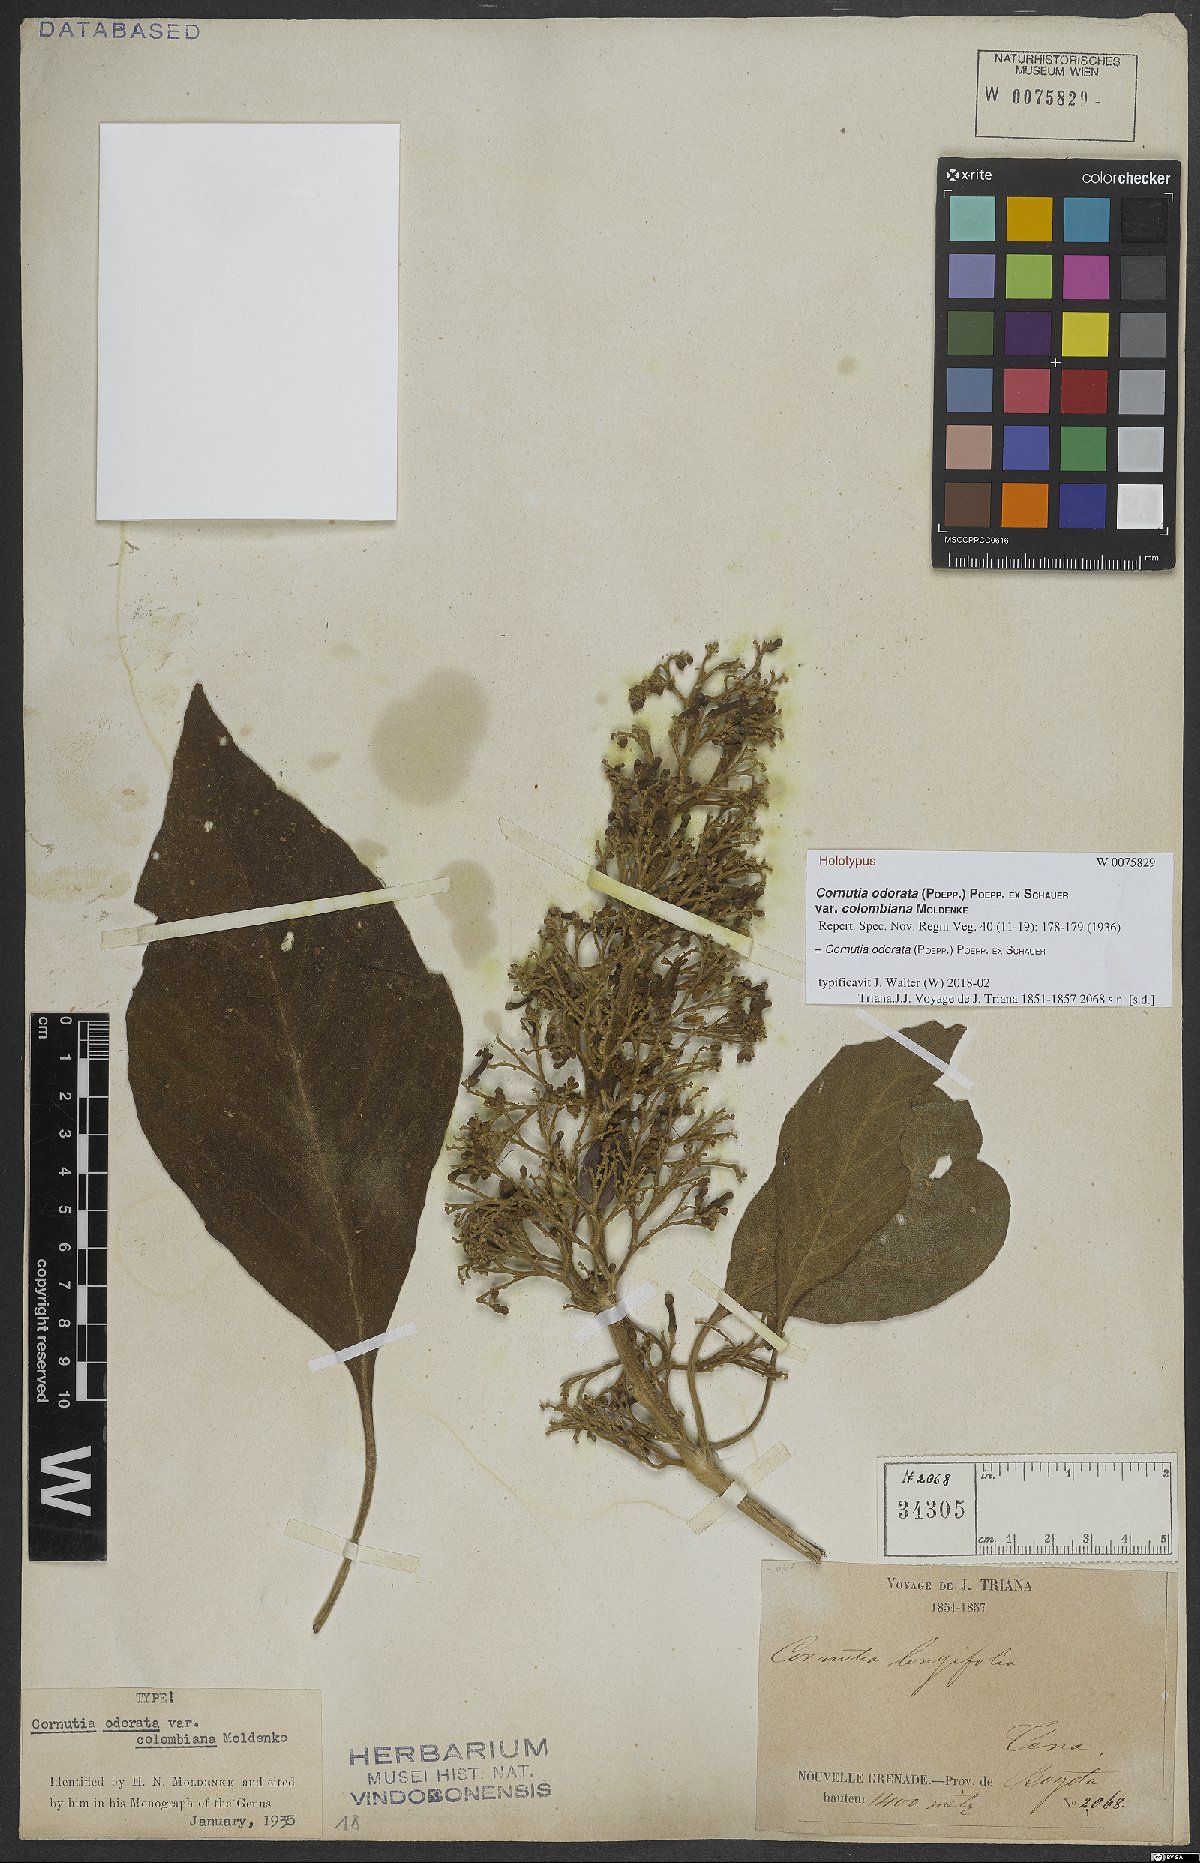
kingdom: Plantae
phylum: Tracheophyta
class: Magnoliopsida
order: Lamiales
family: Lamiaceae
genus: Cornutia
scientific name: Cornutia odorata
